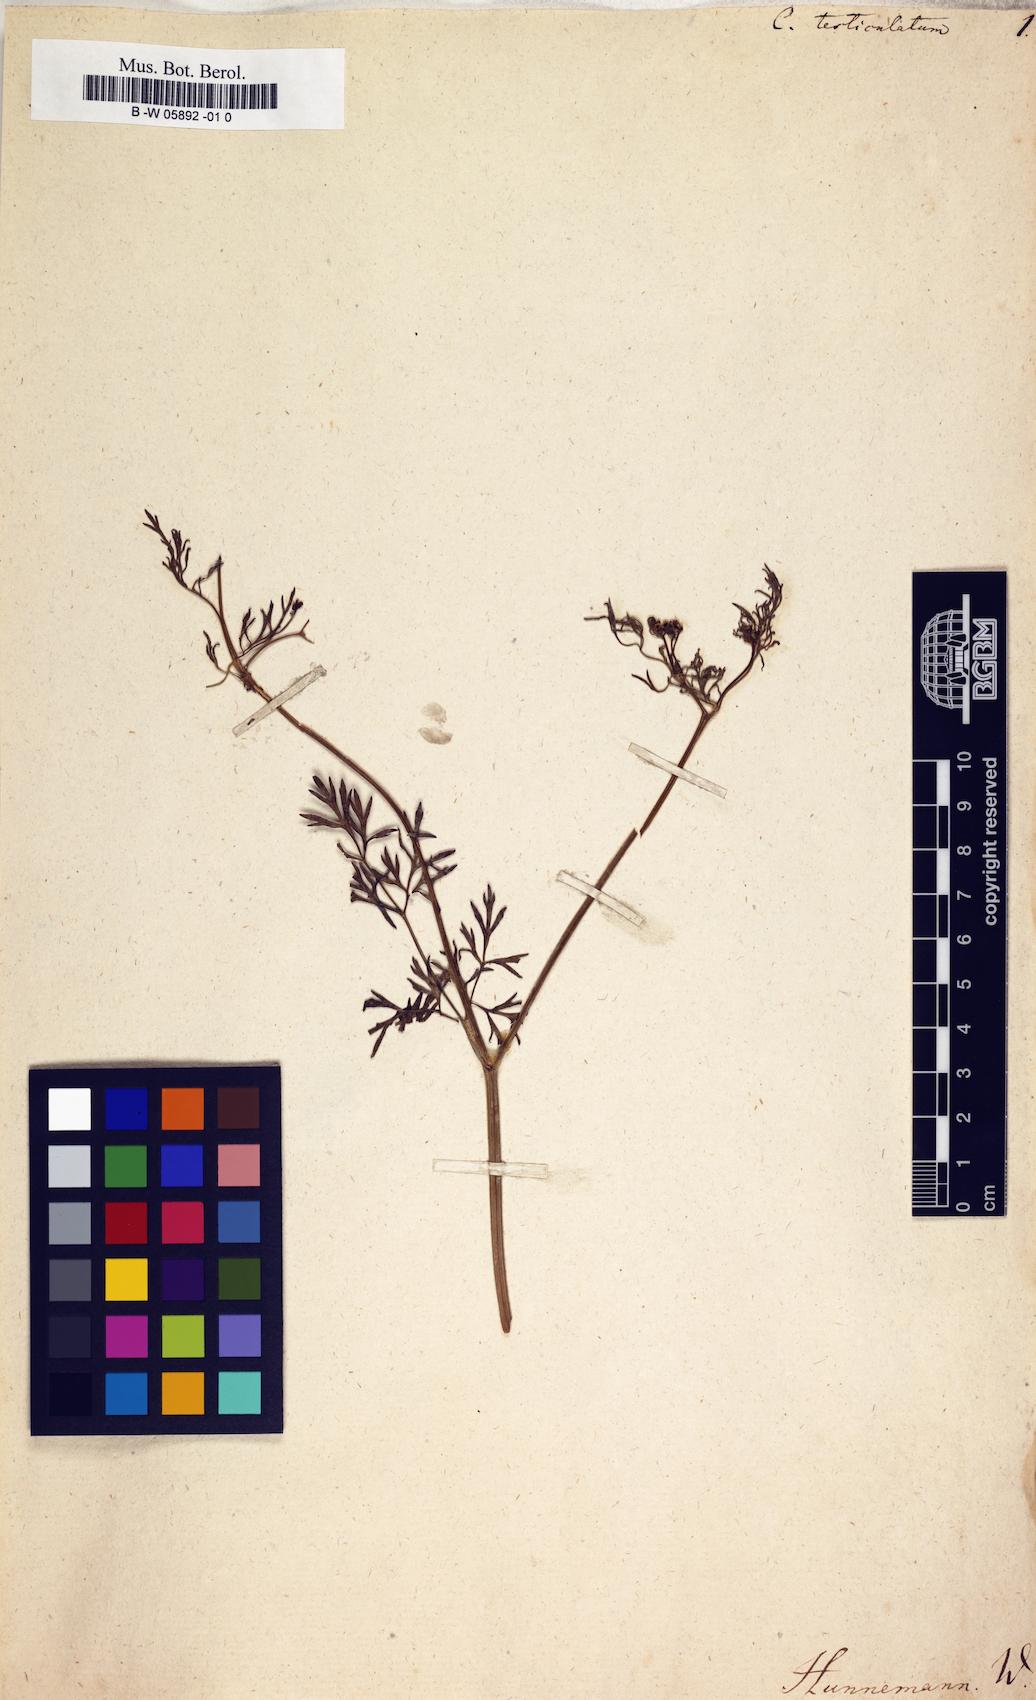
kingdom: Plantae
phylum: Tracheophyta
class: Magnoliopsida
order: Apiales
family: Apiaceae
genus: Bifora
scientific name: Bifora testiculata
